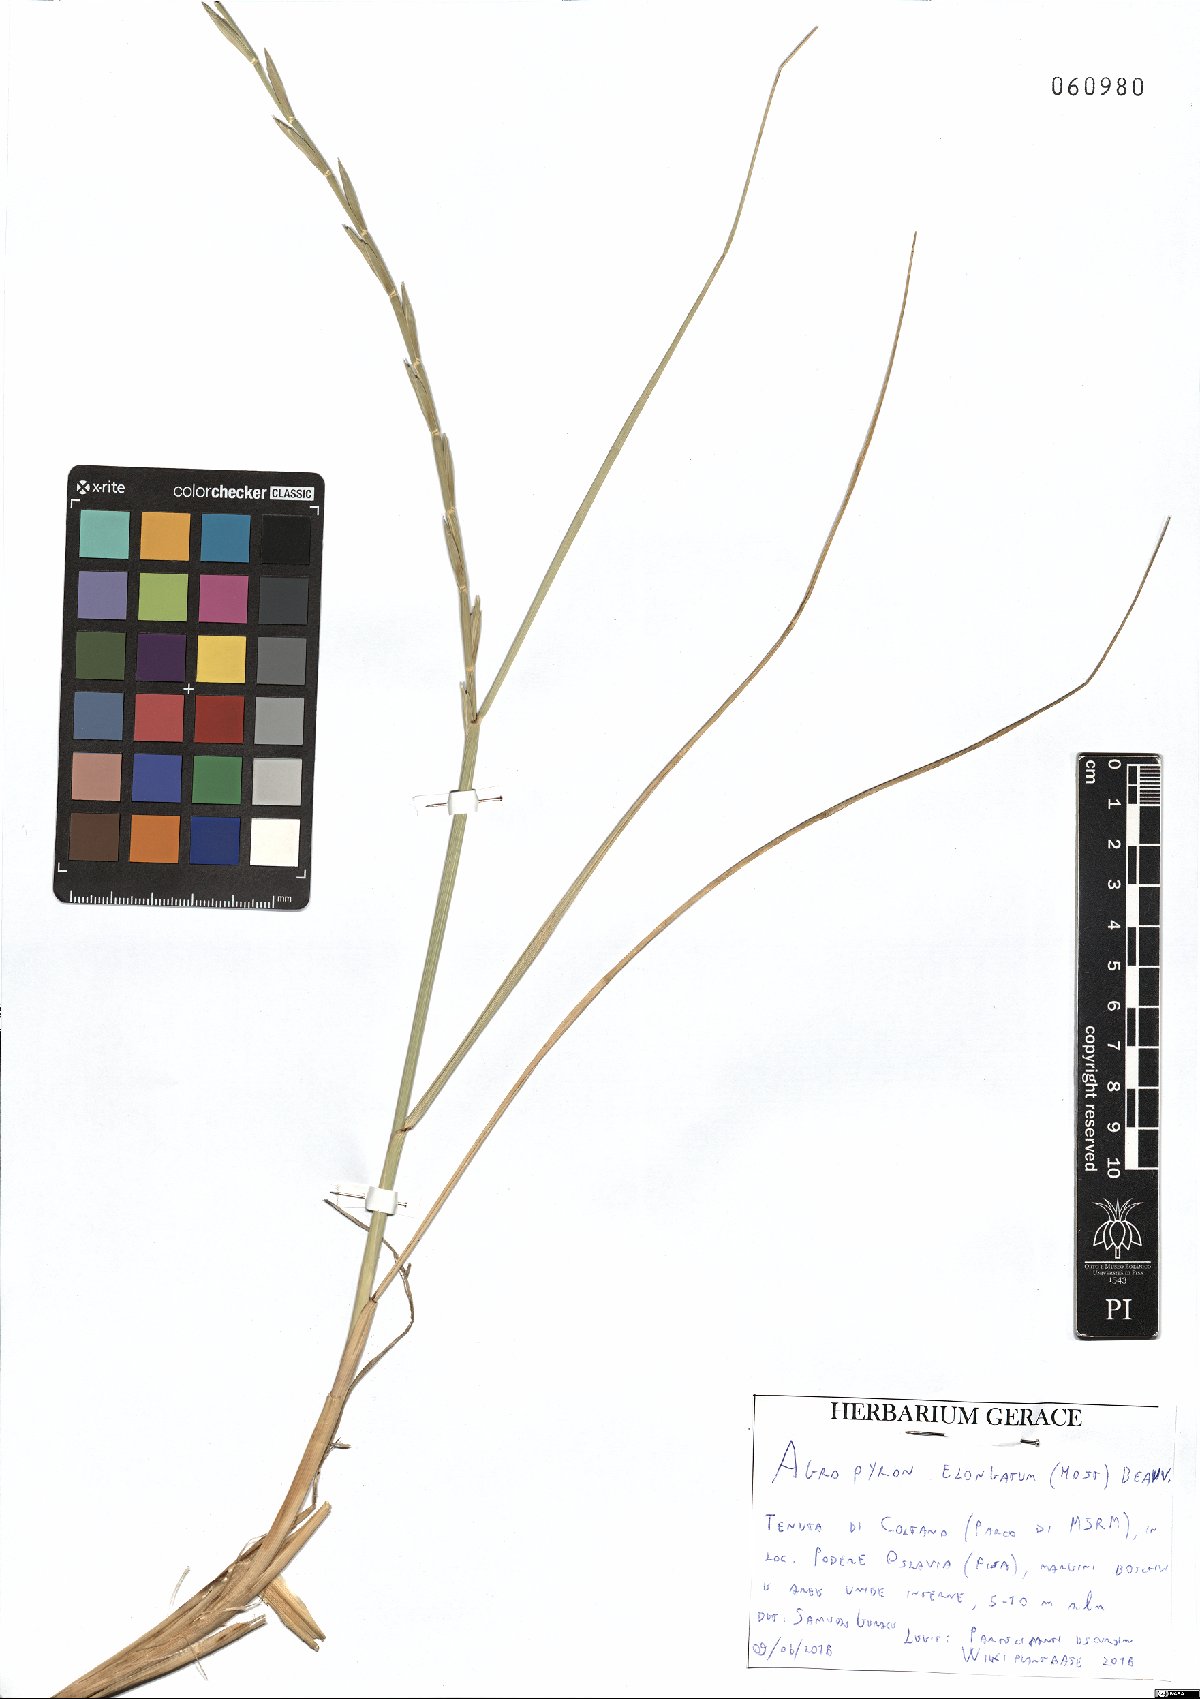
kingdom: Plantae
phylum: Tracheophyta
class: Liliopsida
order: Poales
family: Poaceae
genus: Thinopyrum
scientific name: Thinopyrum elongatum
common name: Tall wheatgrass
